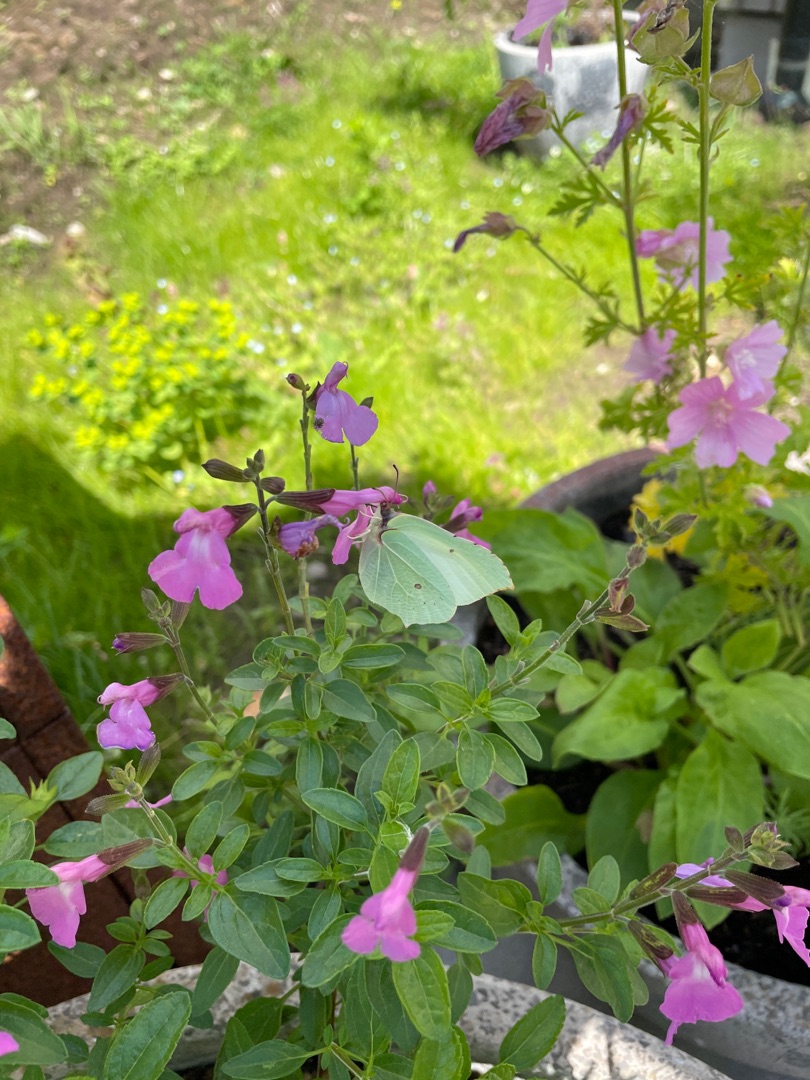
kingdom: Animalia
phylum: Arthropoda
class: Insecta
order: Lepidoptera
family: Pieridae
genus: Gonepteryx
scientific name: Gonepteryx rhamni
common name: Citronsommerfugl
